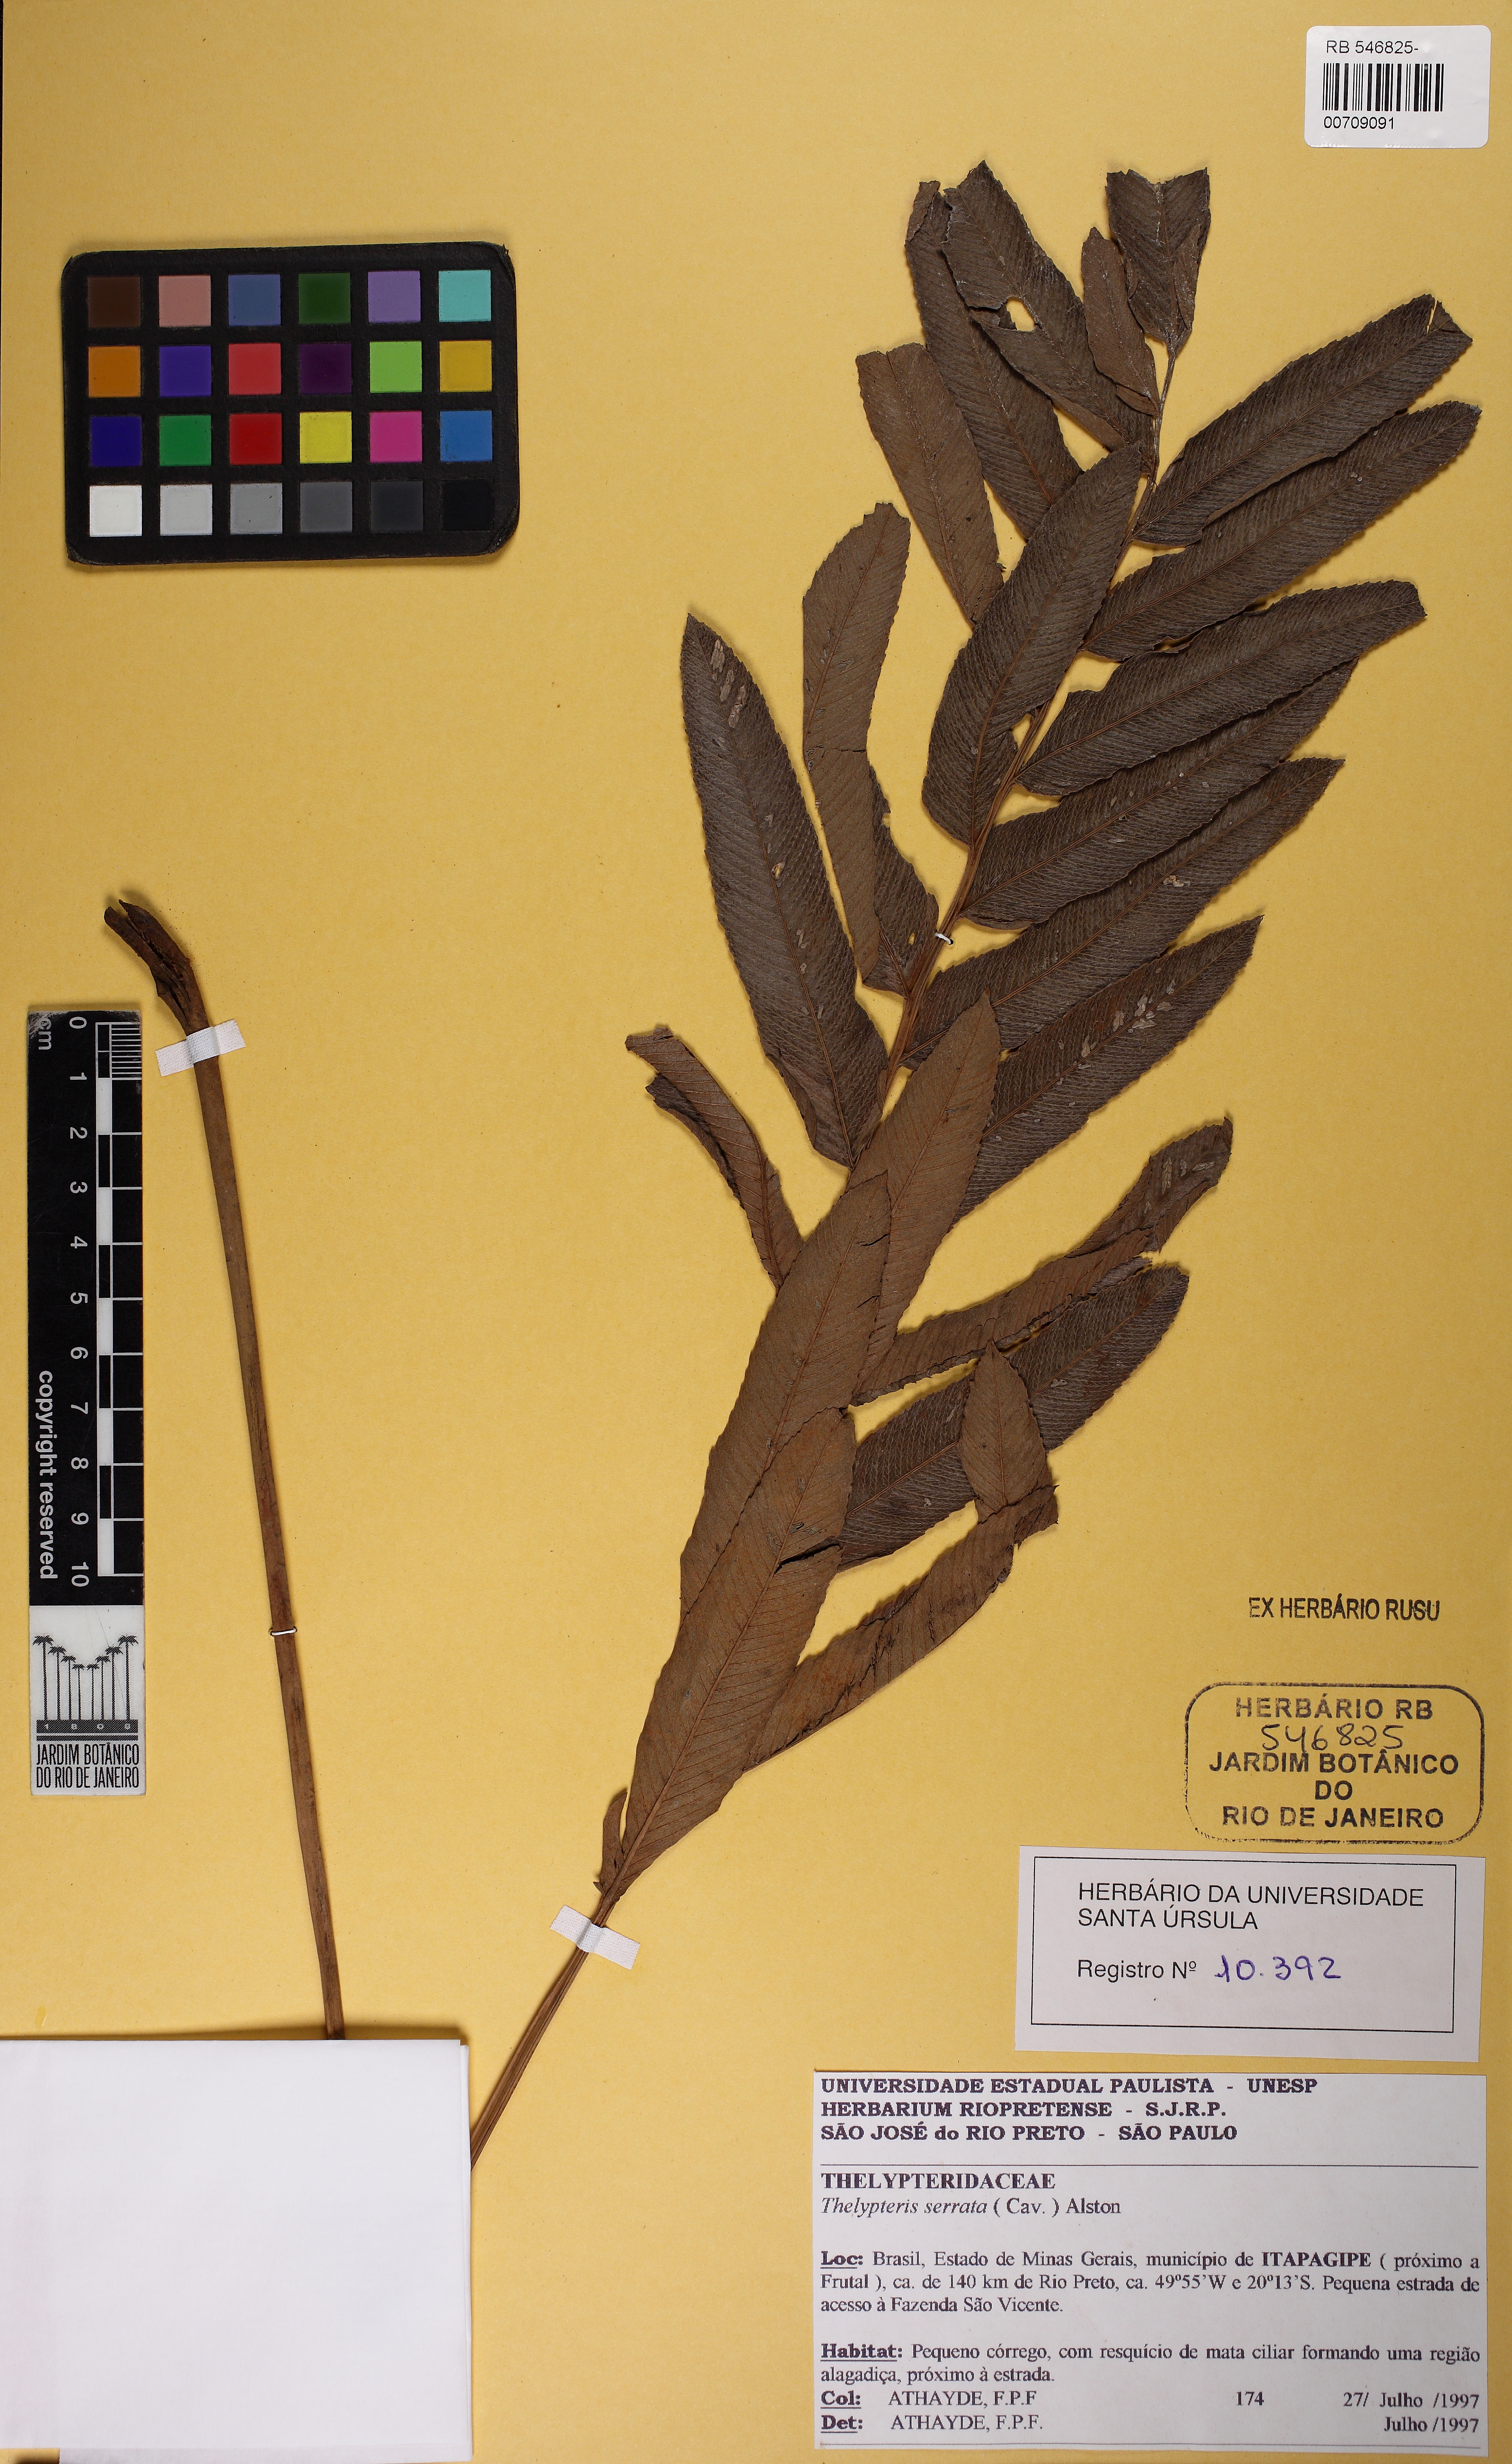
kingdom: Plantae
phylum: Tracheophyta
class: Polypodiopsida
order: Polypodiales
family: Thelypteridaceae
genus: Meniscium
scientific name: Meniscium serratum
